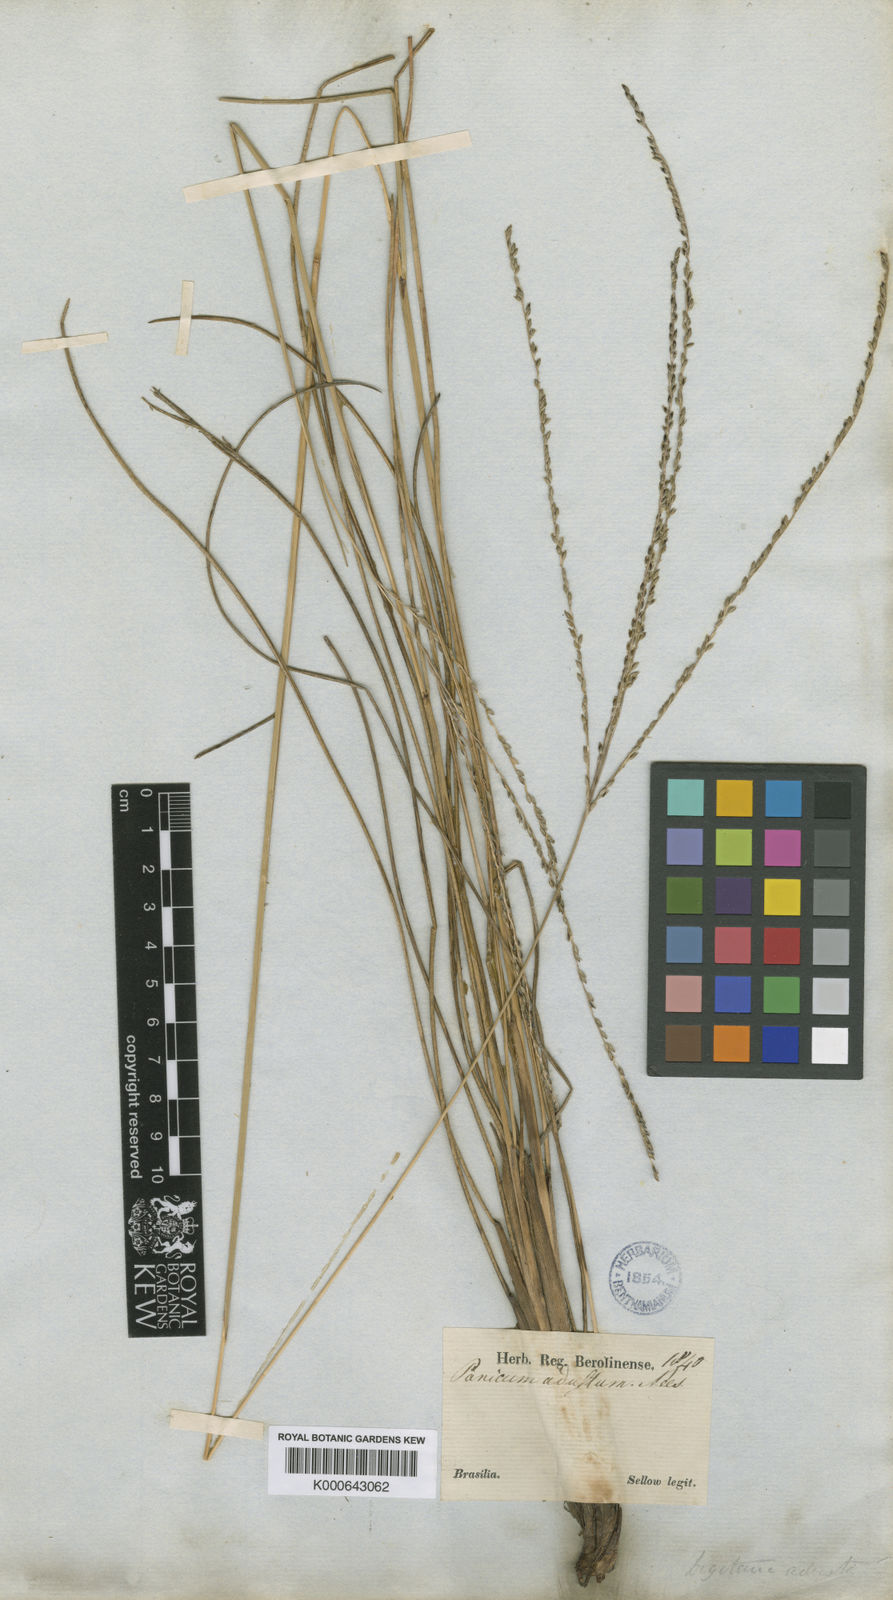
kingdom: Plantae
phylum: Tracheophyta
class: Liliopsida
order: Poales
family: Poaceae
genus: Digitaria
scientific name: Digitaria phaeothrix
